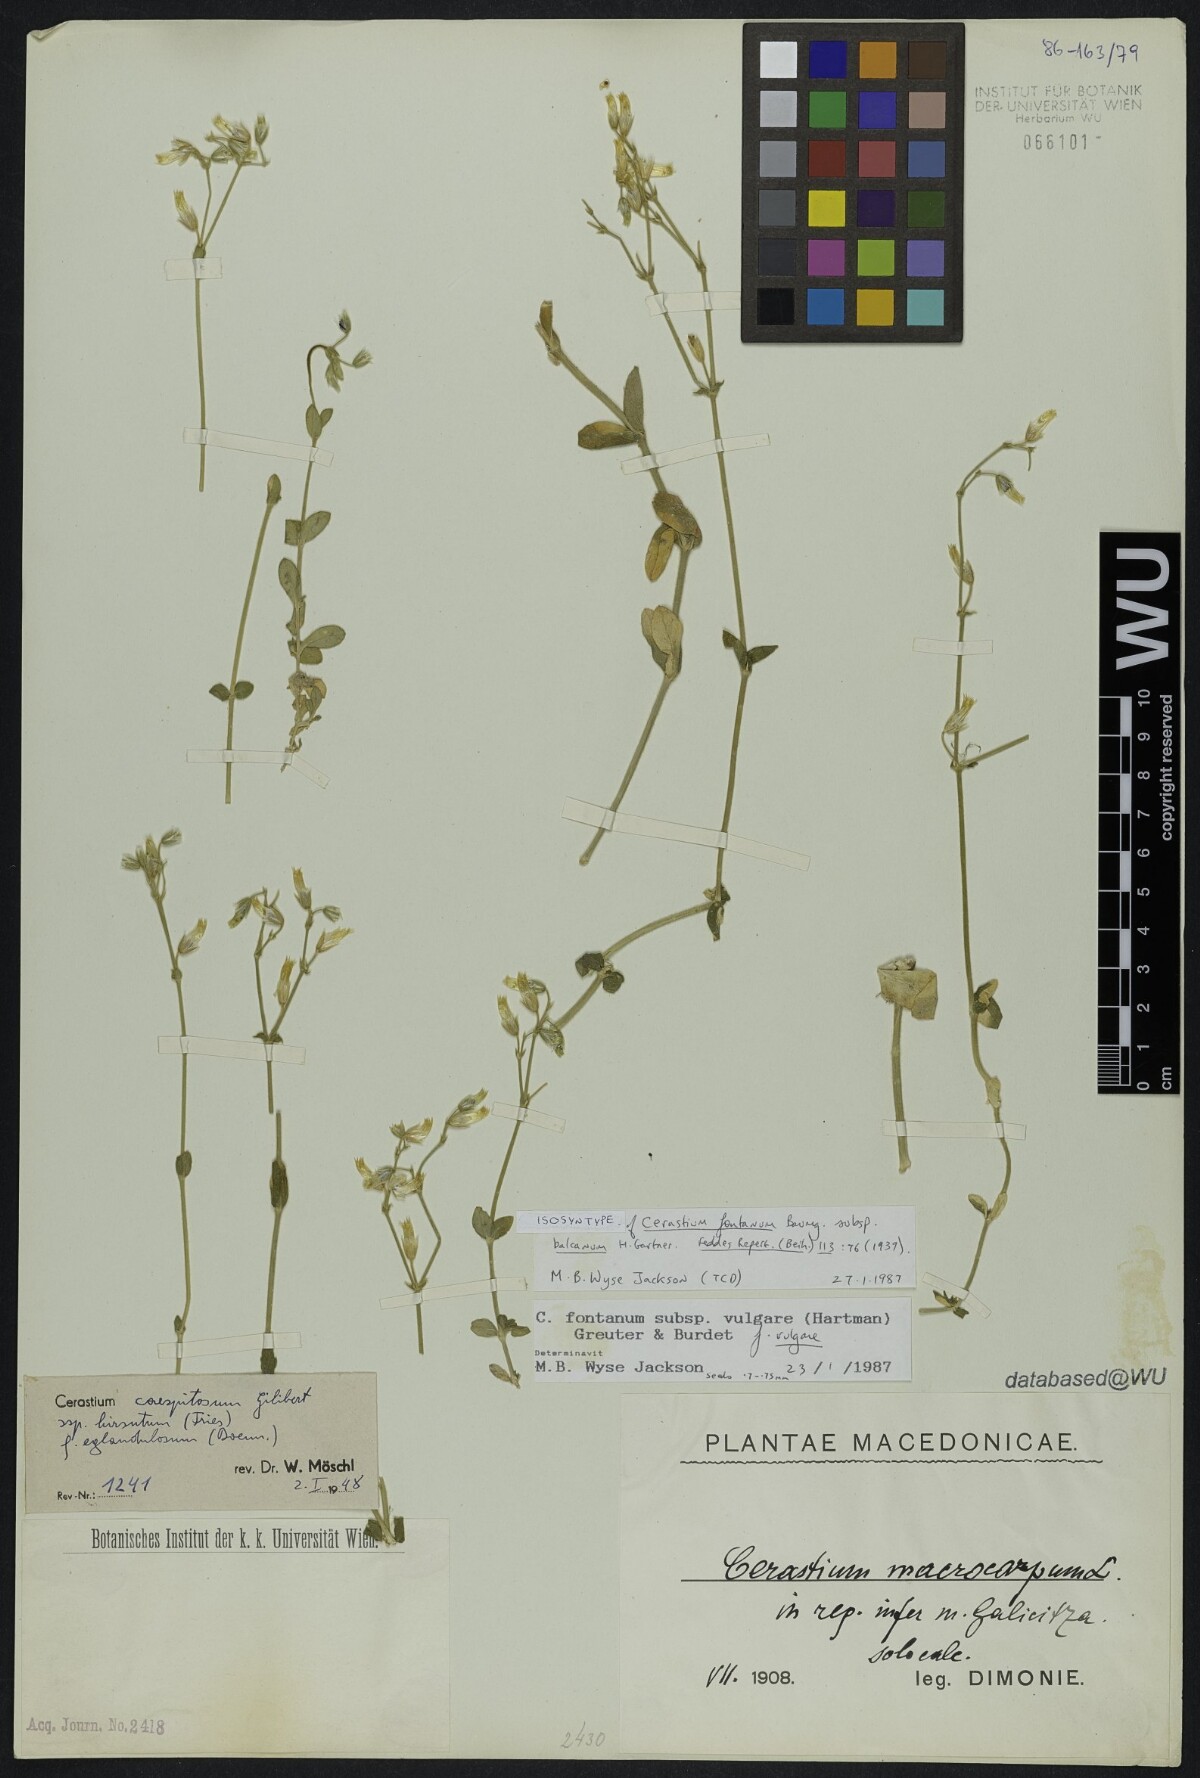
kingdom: Plantae
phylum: Tracheophyta
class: Magnoliopsida
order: Caryophyllales
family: Caryophyllaceae
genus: Cerastium
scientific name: Cerastium holosteoides
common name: Big chickweed
